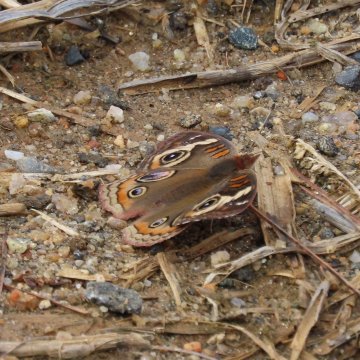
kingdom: Animalia
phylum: Arthropoda
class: Insecta
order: Lepidoptera
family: Nymphalidae
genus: Junonia
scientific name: Junonia coenia
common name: Common Buckeye
